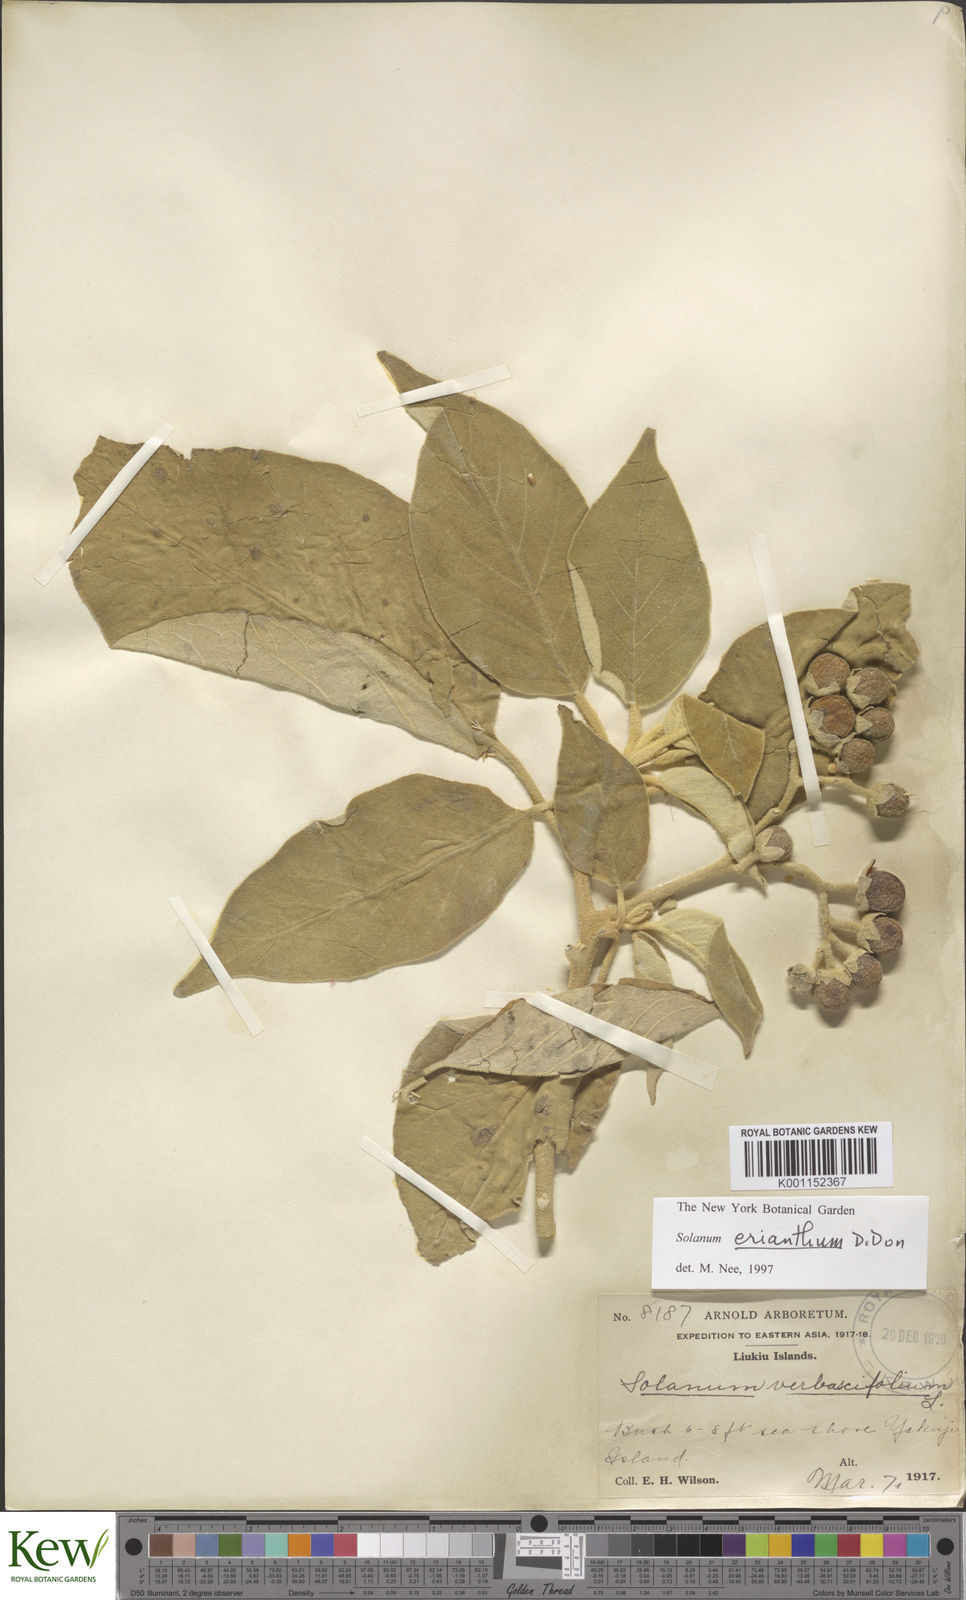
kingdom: Plantae
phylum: Tracheophyta
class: Magnoliopsida
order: Solanales
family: Solanaceae
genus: Solanum
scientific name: Solanum donianum
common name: Mullein nightshade
